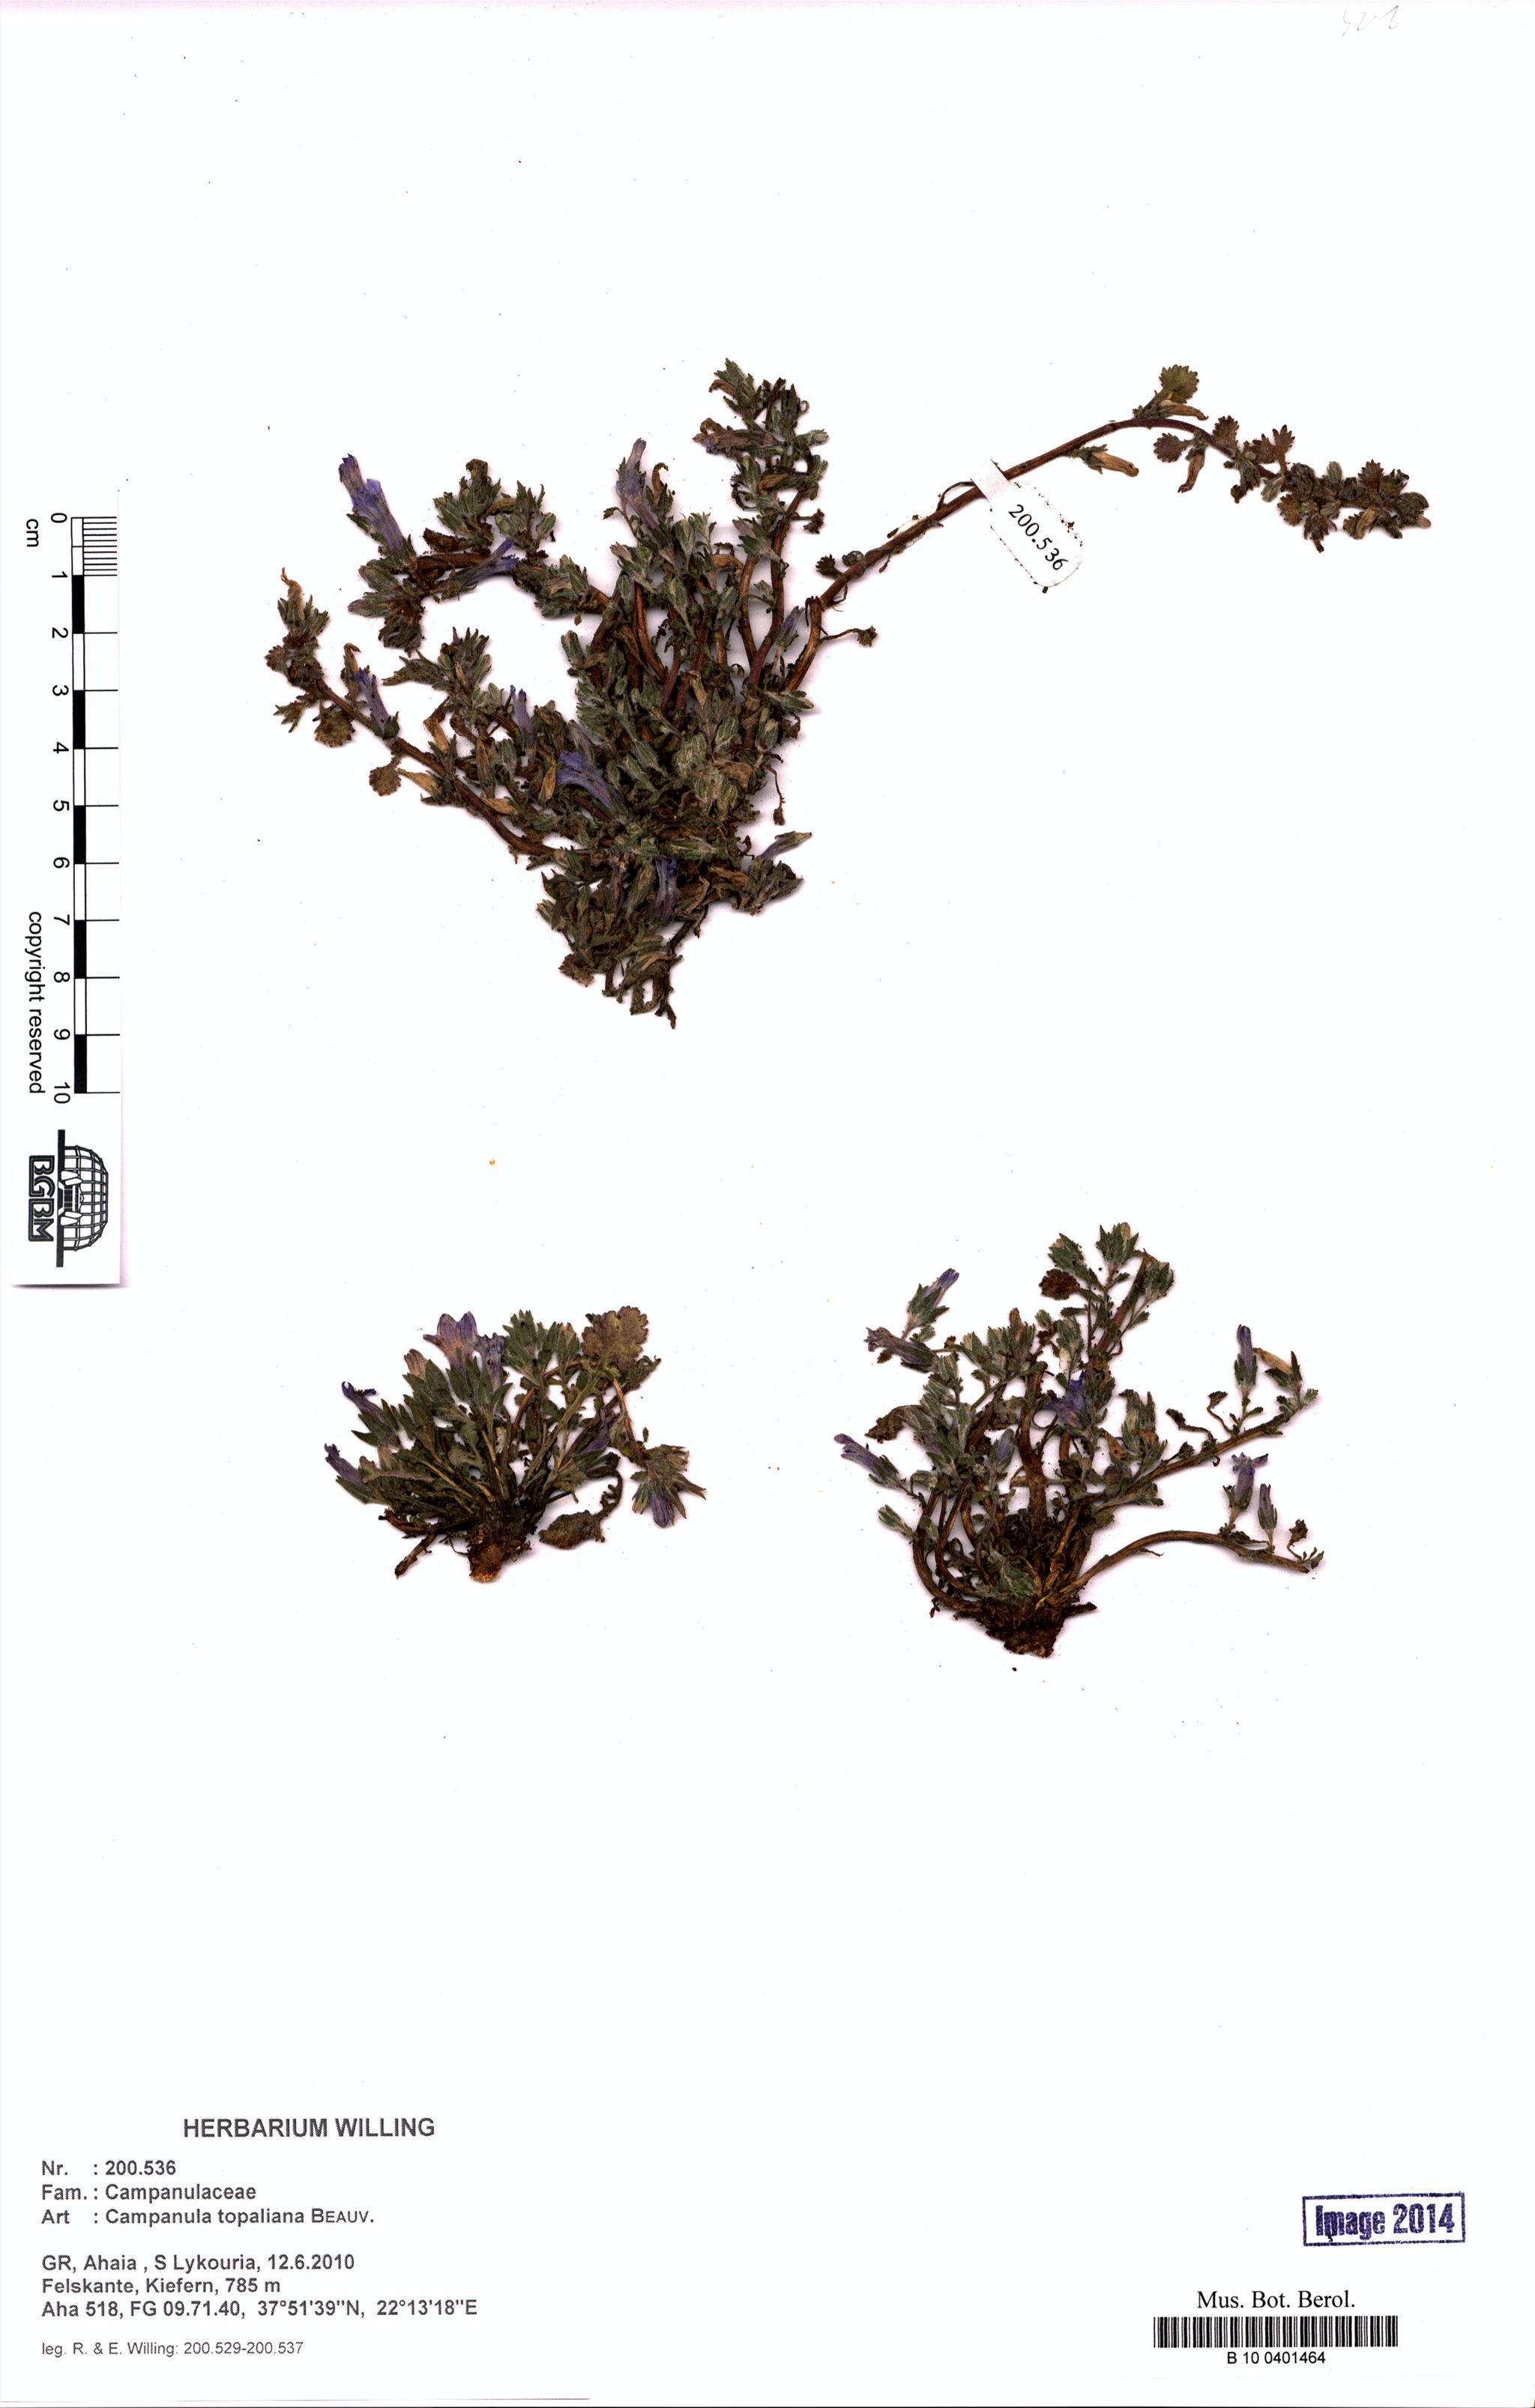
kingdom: Plantae
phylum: Tracheophyta
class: Magnoliopsida
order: Asterales
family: Campanulaceae
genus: Campanula
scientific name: Campanula topaliana
